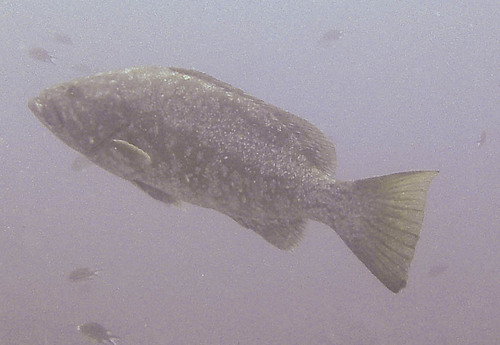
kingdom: Animalia
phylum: Chordata
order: Perciformes
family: Serranidae
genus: Mycteroperca
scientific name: Mycteroperca fusca
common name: Island grouper
